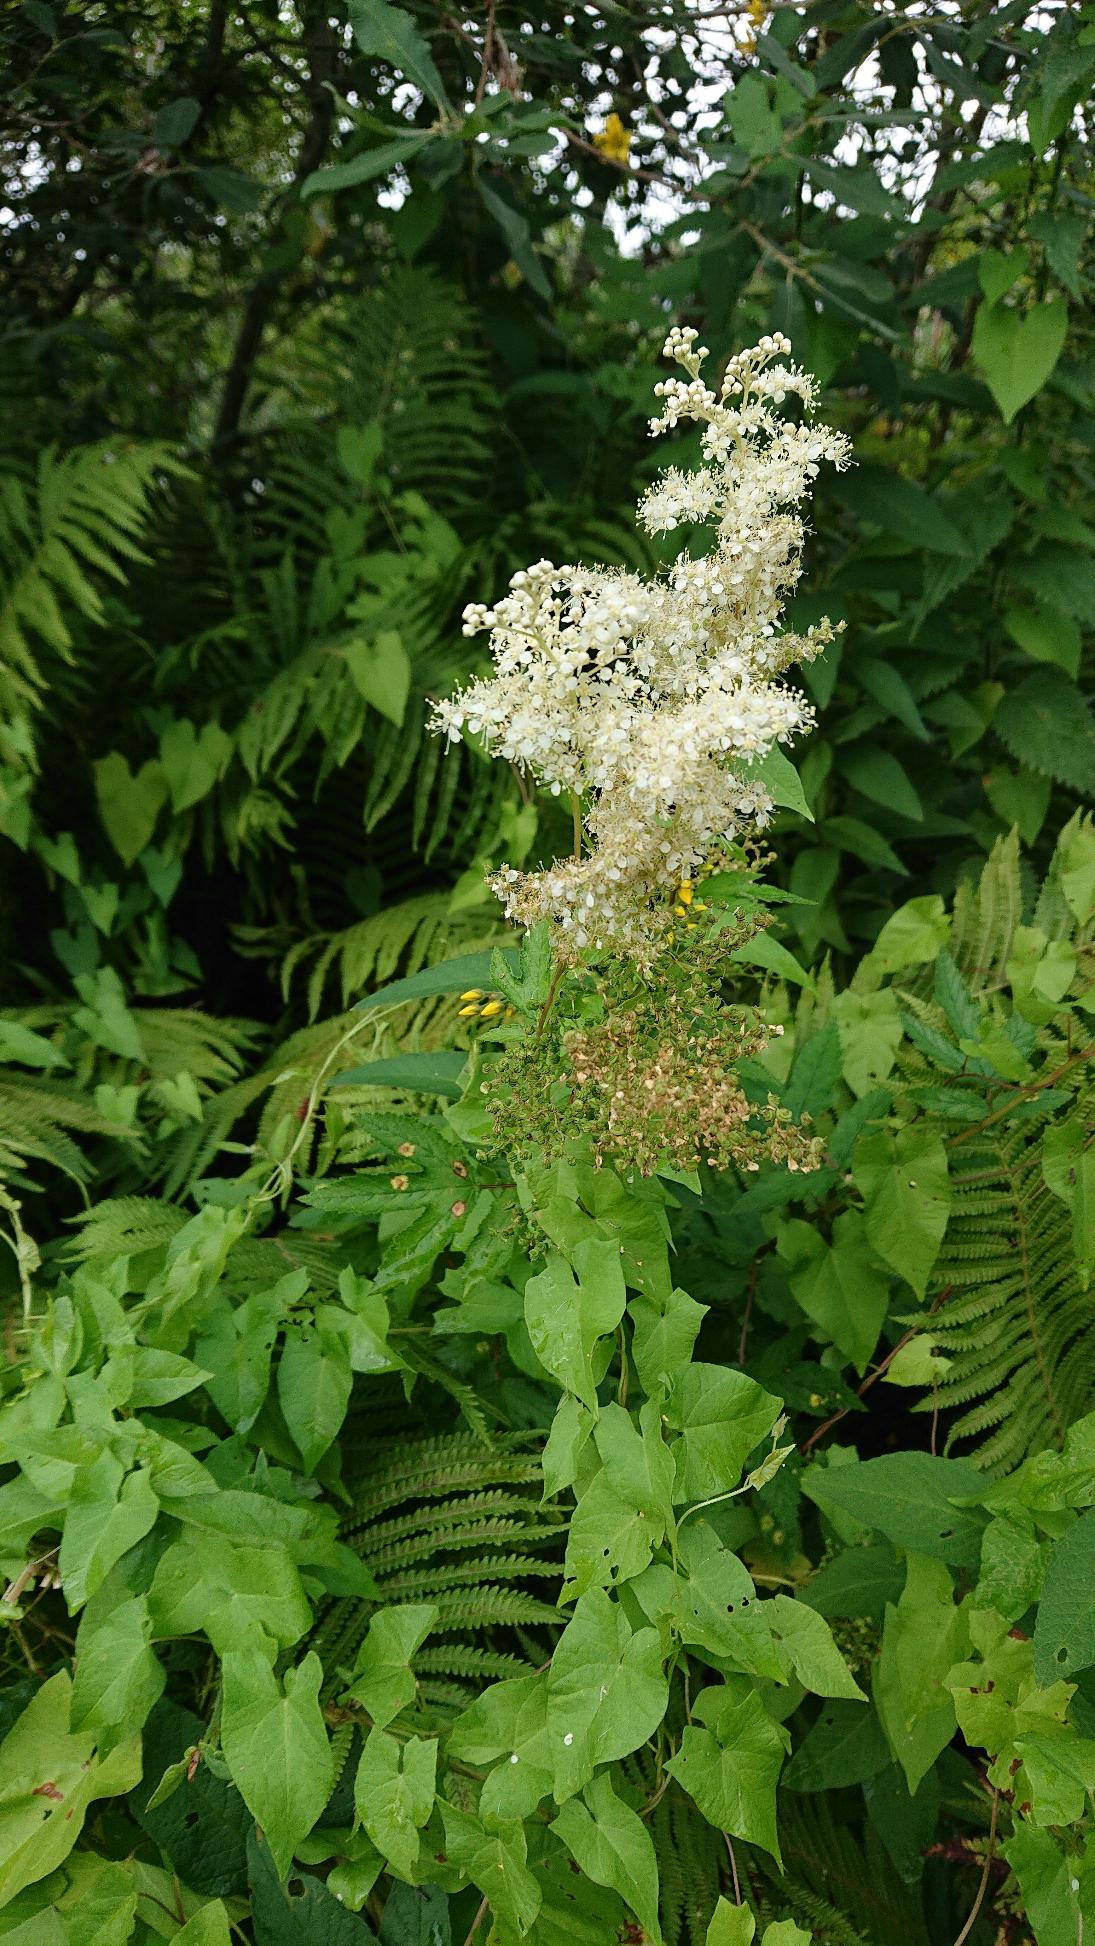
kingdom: Plantae
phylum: Tracheophyta
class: Magnoliopsida
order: Rosales
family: Rosaceae
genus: Filipendula
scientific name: Filipendula ulmaria
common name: Almindelig mjødurt
